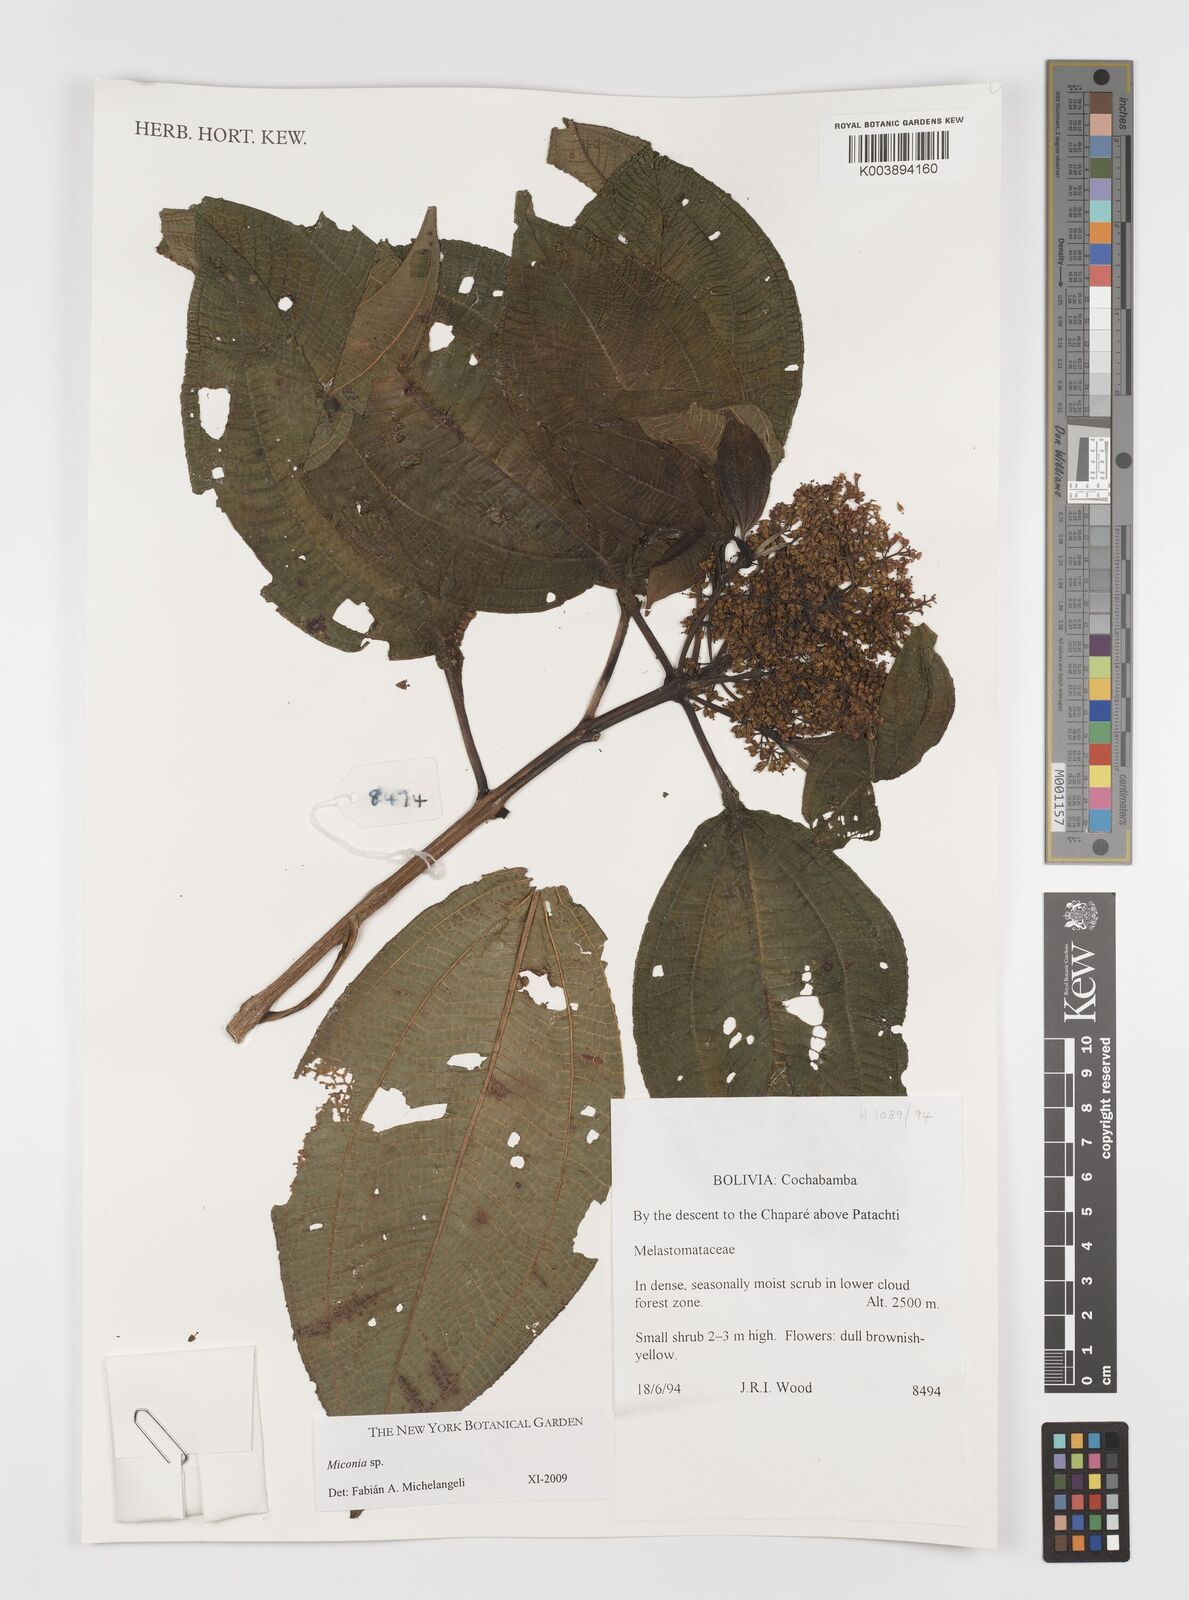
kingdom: Plantae
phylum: Tracheophyta
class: Magnoliopsida
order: Myrtales
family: Melastomataceae
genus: Miconia
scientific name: Miconia
